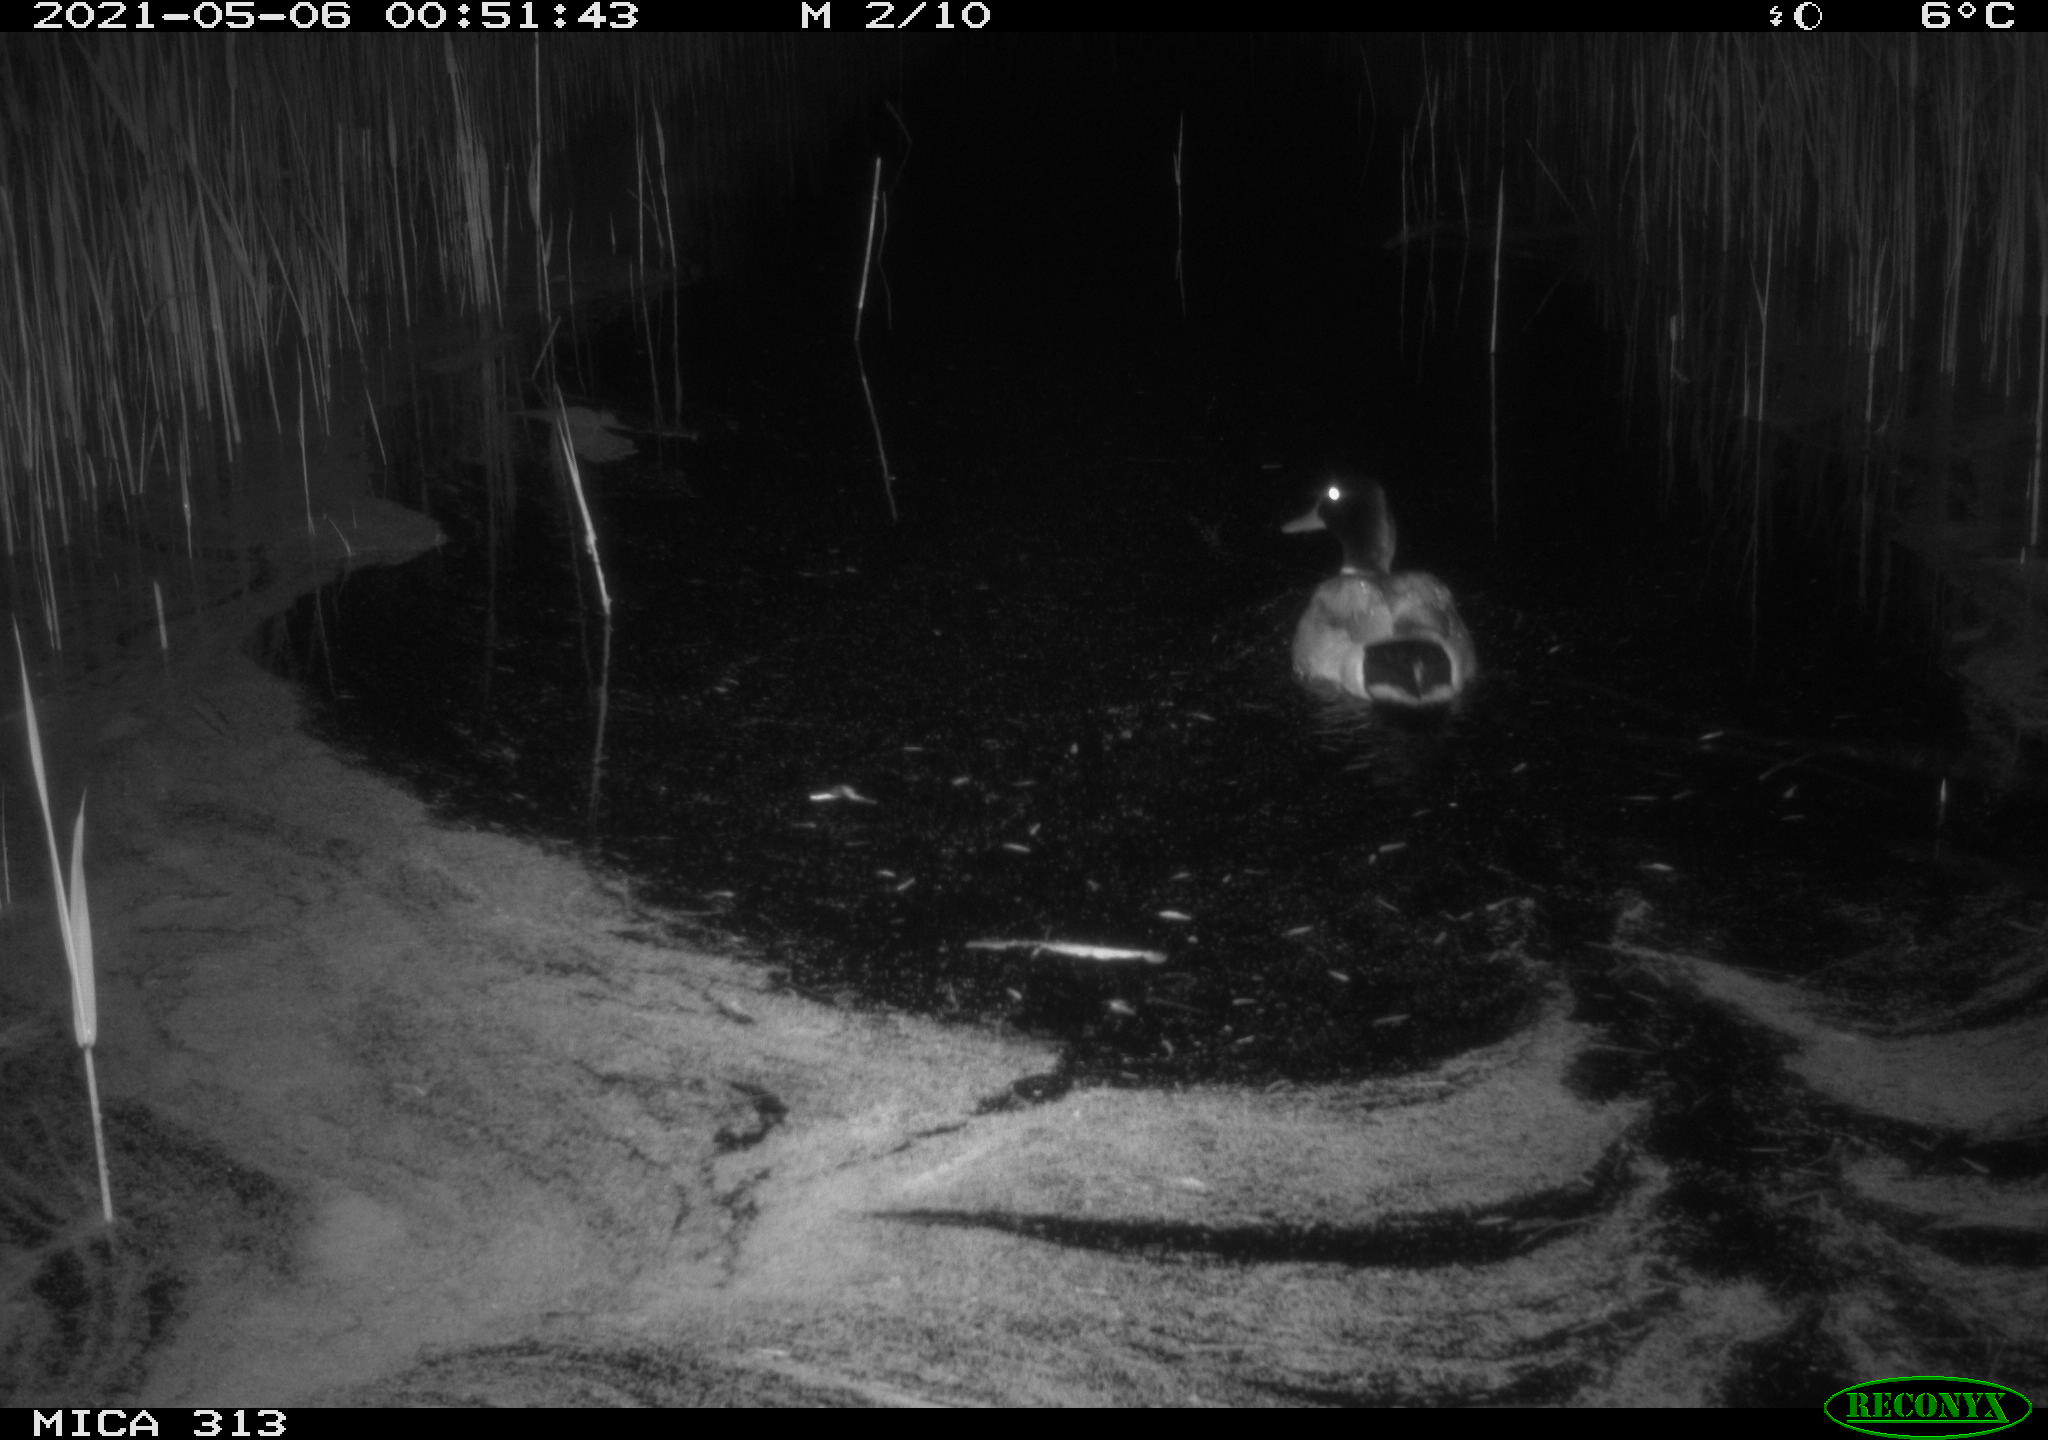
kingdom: Animalia
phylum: Chordata
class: Aves
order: Anseriformes
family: Anatidae
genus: Anas
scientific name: Anas platyrhynchos
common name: Mallard
